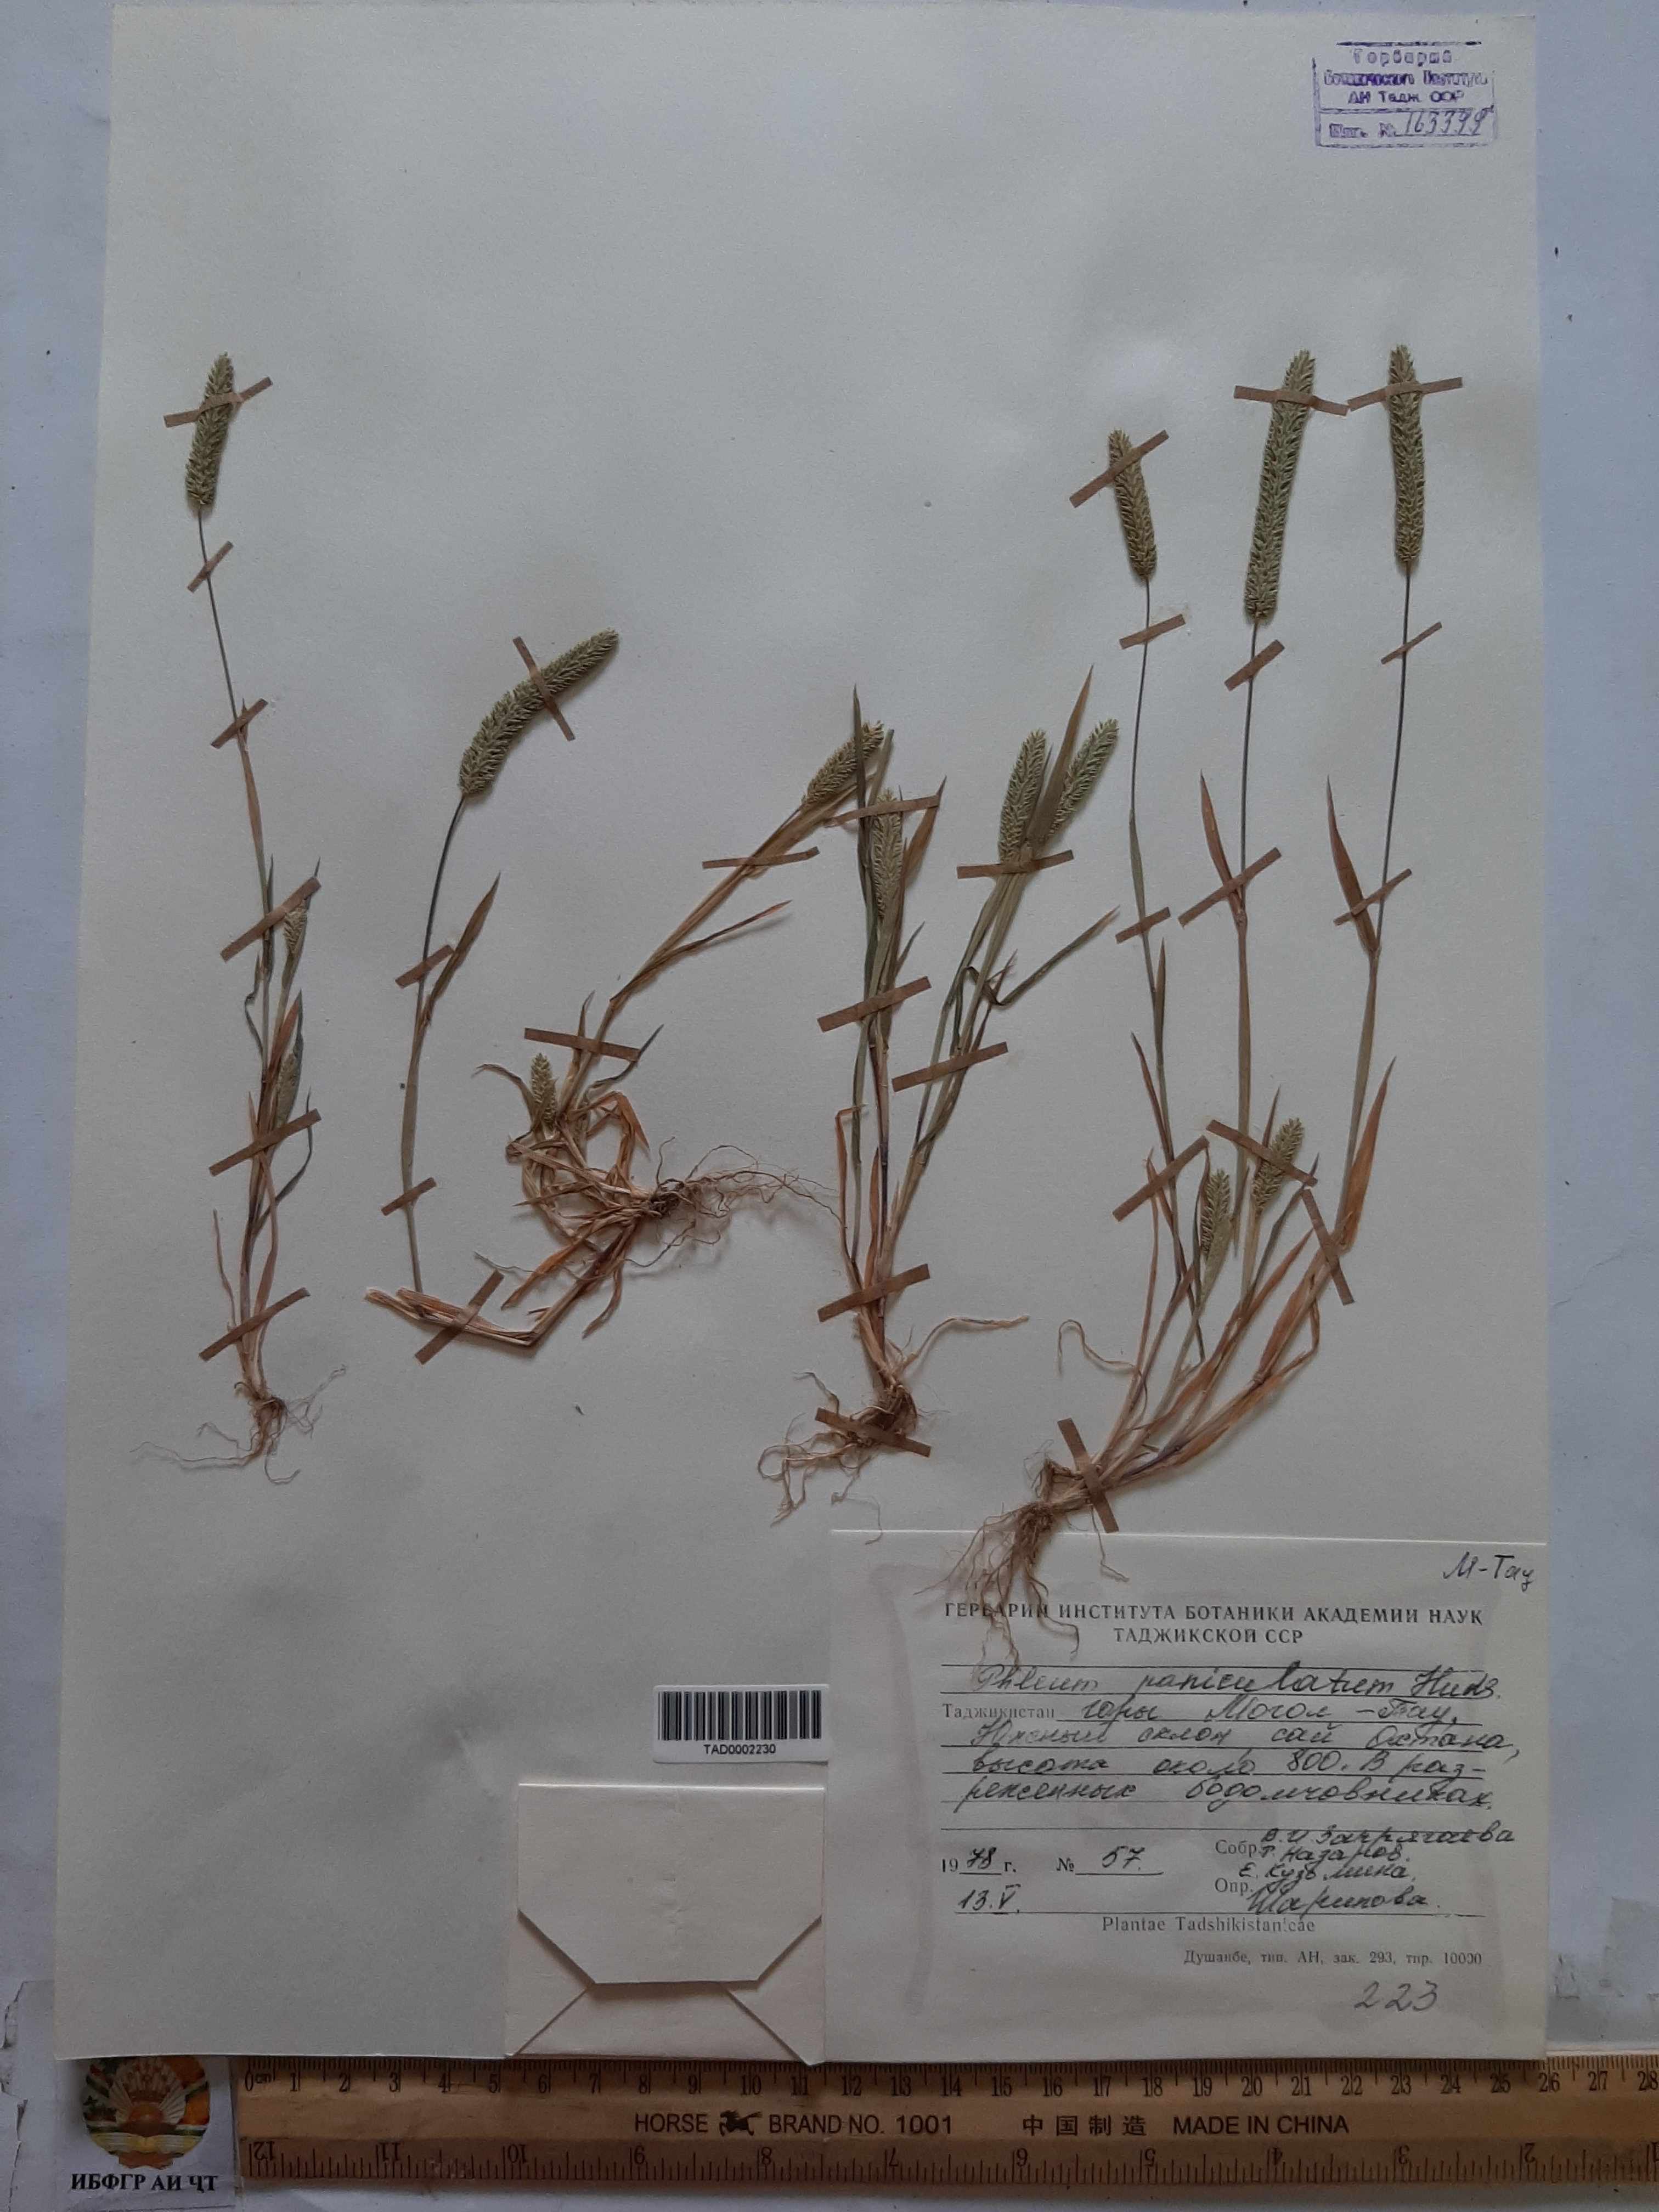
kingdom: Plantae
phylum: Tracheophyta
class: Liliopsida
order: Poales
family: Poaceae
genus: Phleum
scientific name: Phleum paniculatum
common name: British timothy
